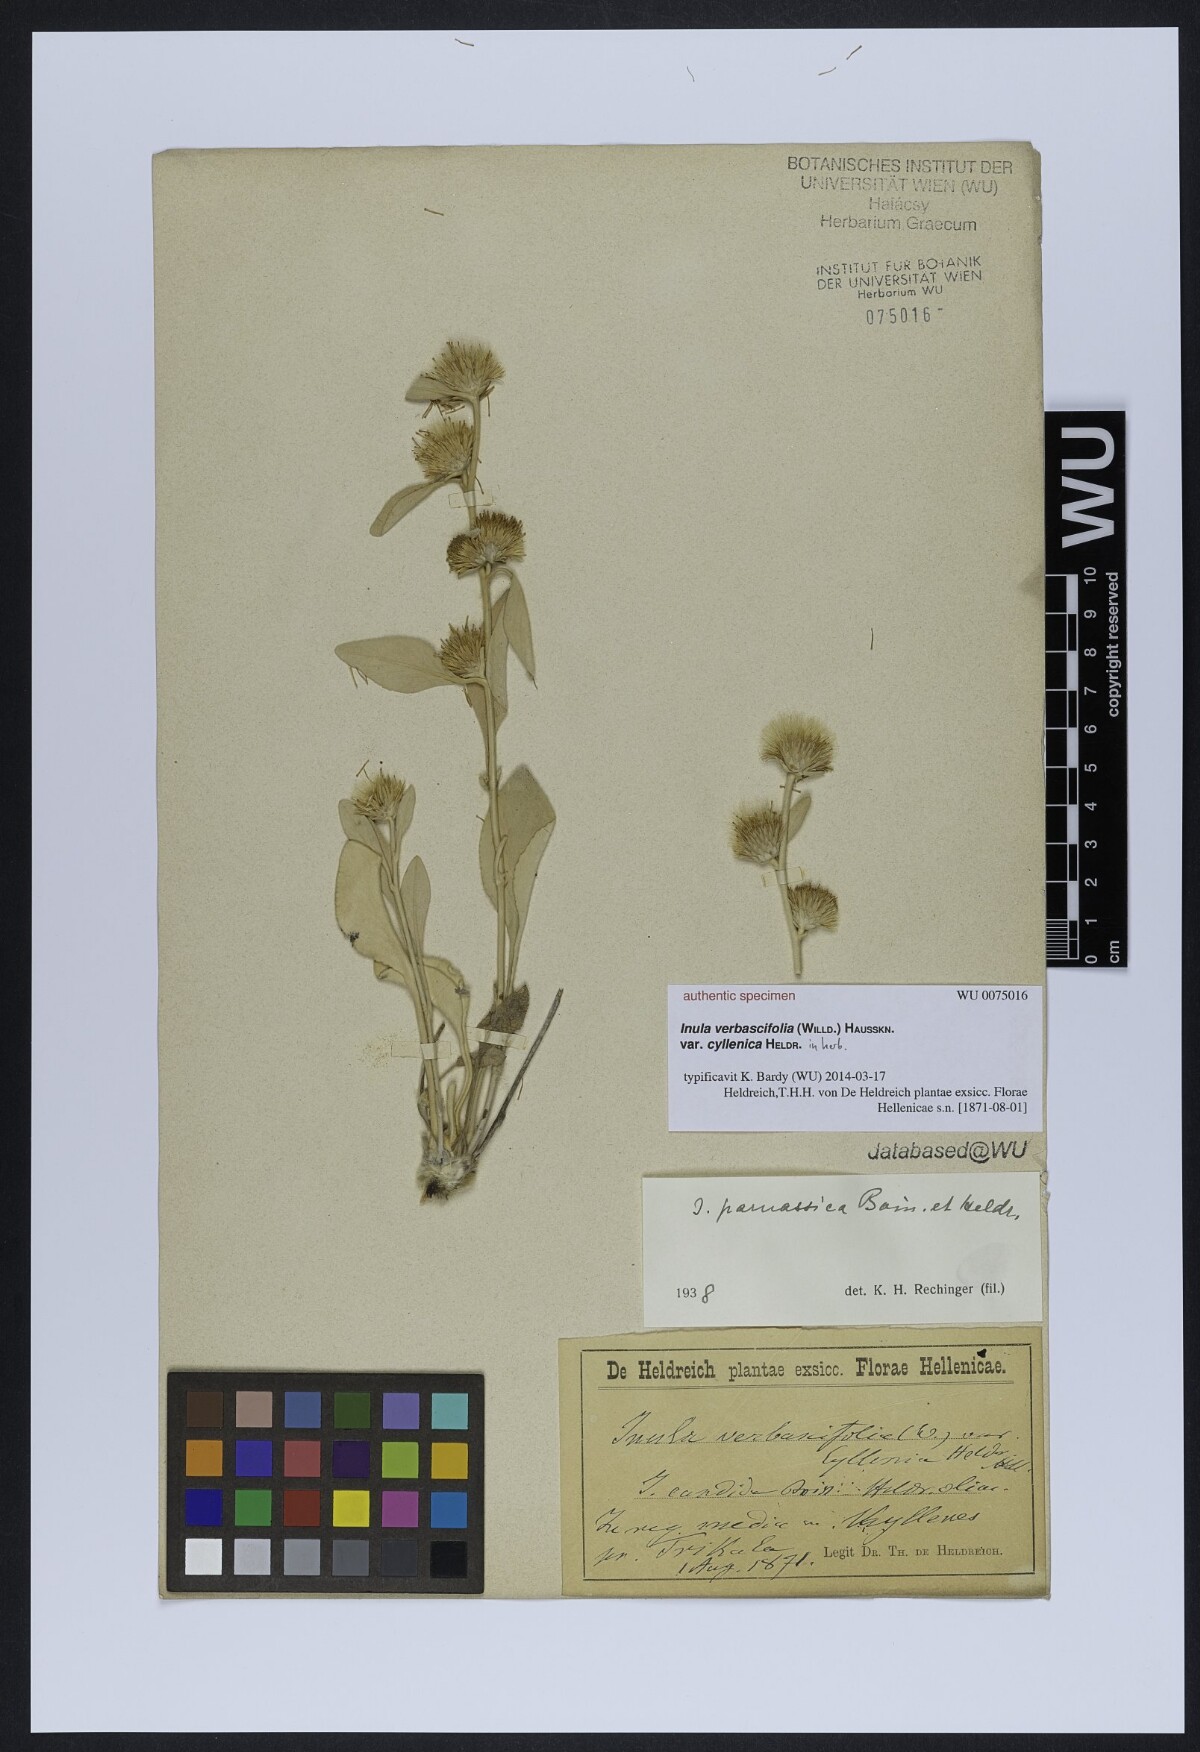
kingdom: Plantae
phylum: Tracheophyta
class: Magnoliopsida
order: Asterales
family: Asteraceae
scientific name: Asteraceae
